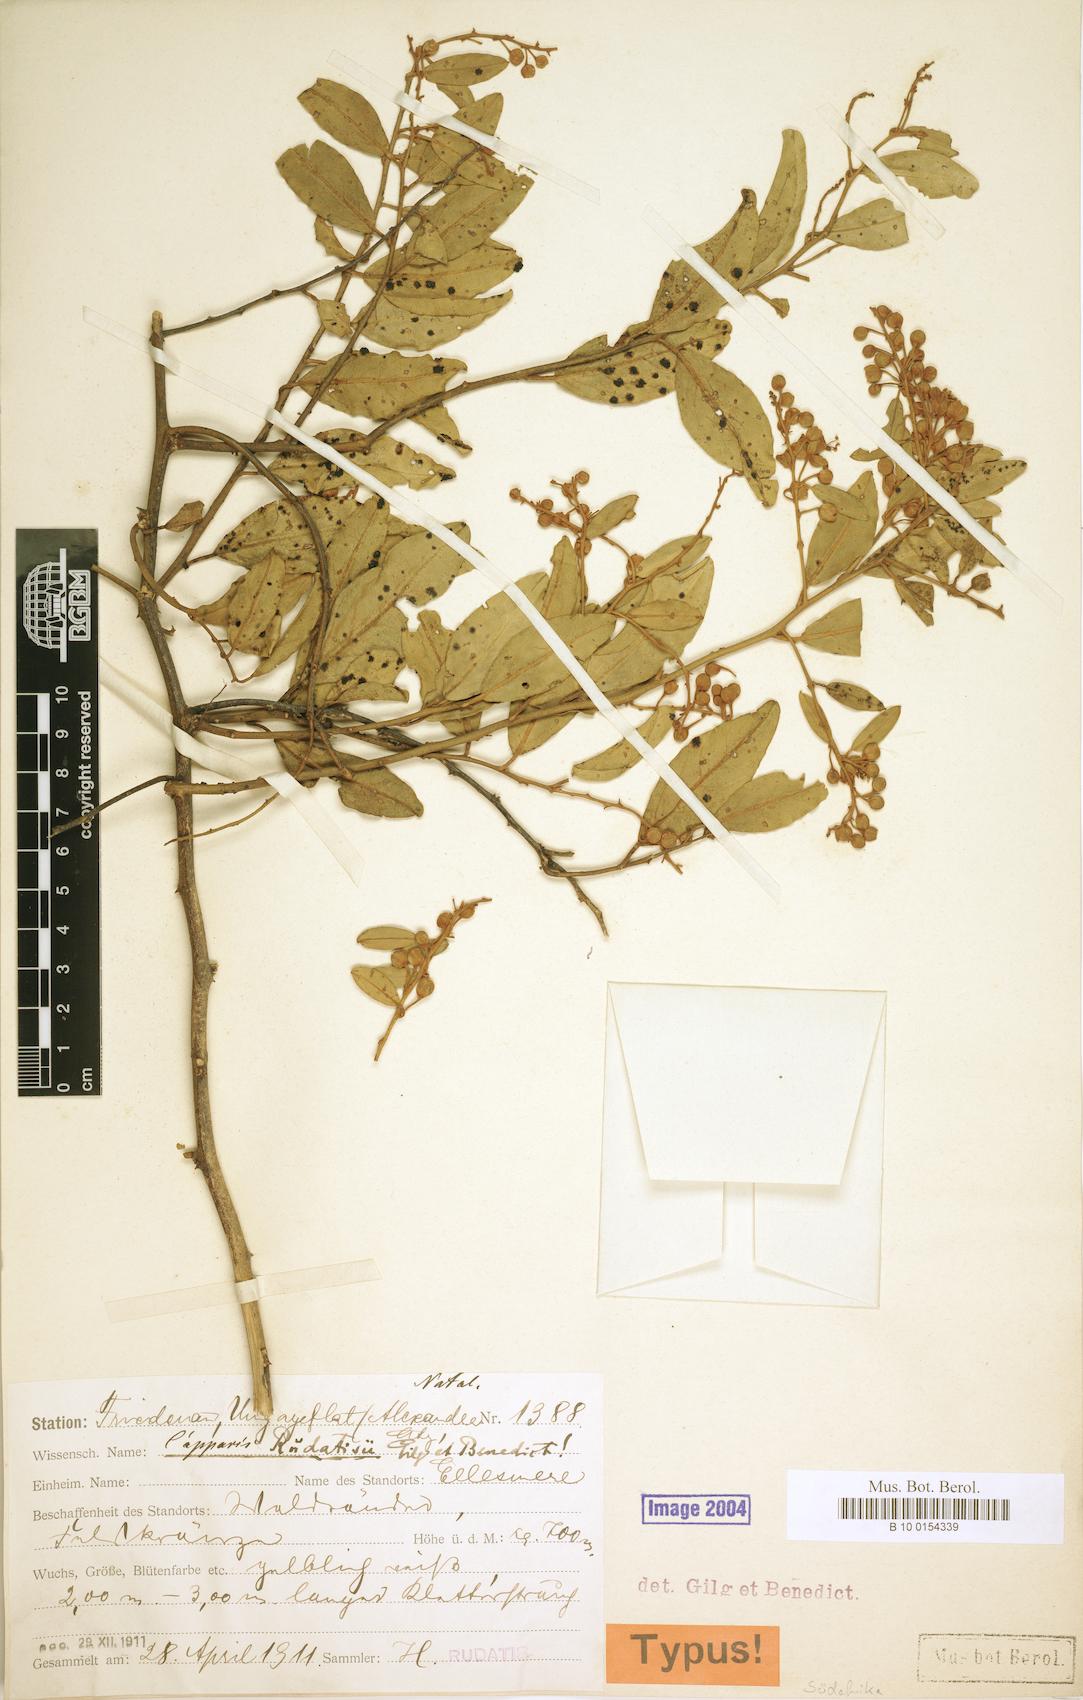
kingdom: Plantae
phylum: Tracheophyta
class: Magnoliopsida
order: Brassicales
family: Capparaceae
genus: Capparis
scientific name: Capparis fascicularis
